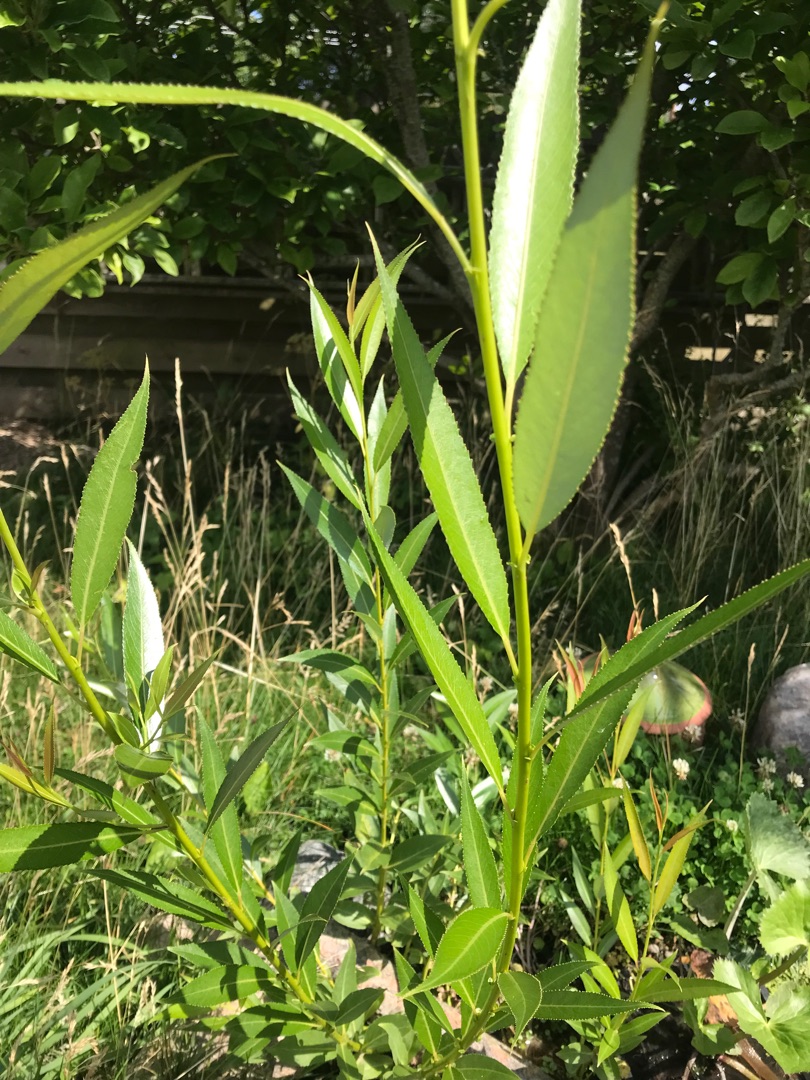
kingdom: Plantae
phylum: Tracheophyta
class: Magnoliopsida
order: Malpighiales
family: Salicaceae
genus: Salix
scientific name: Salix
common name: Pileslægten
